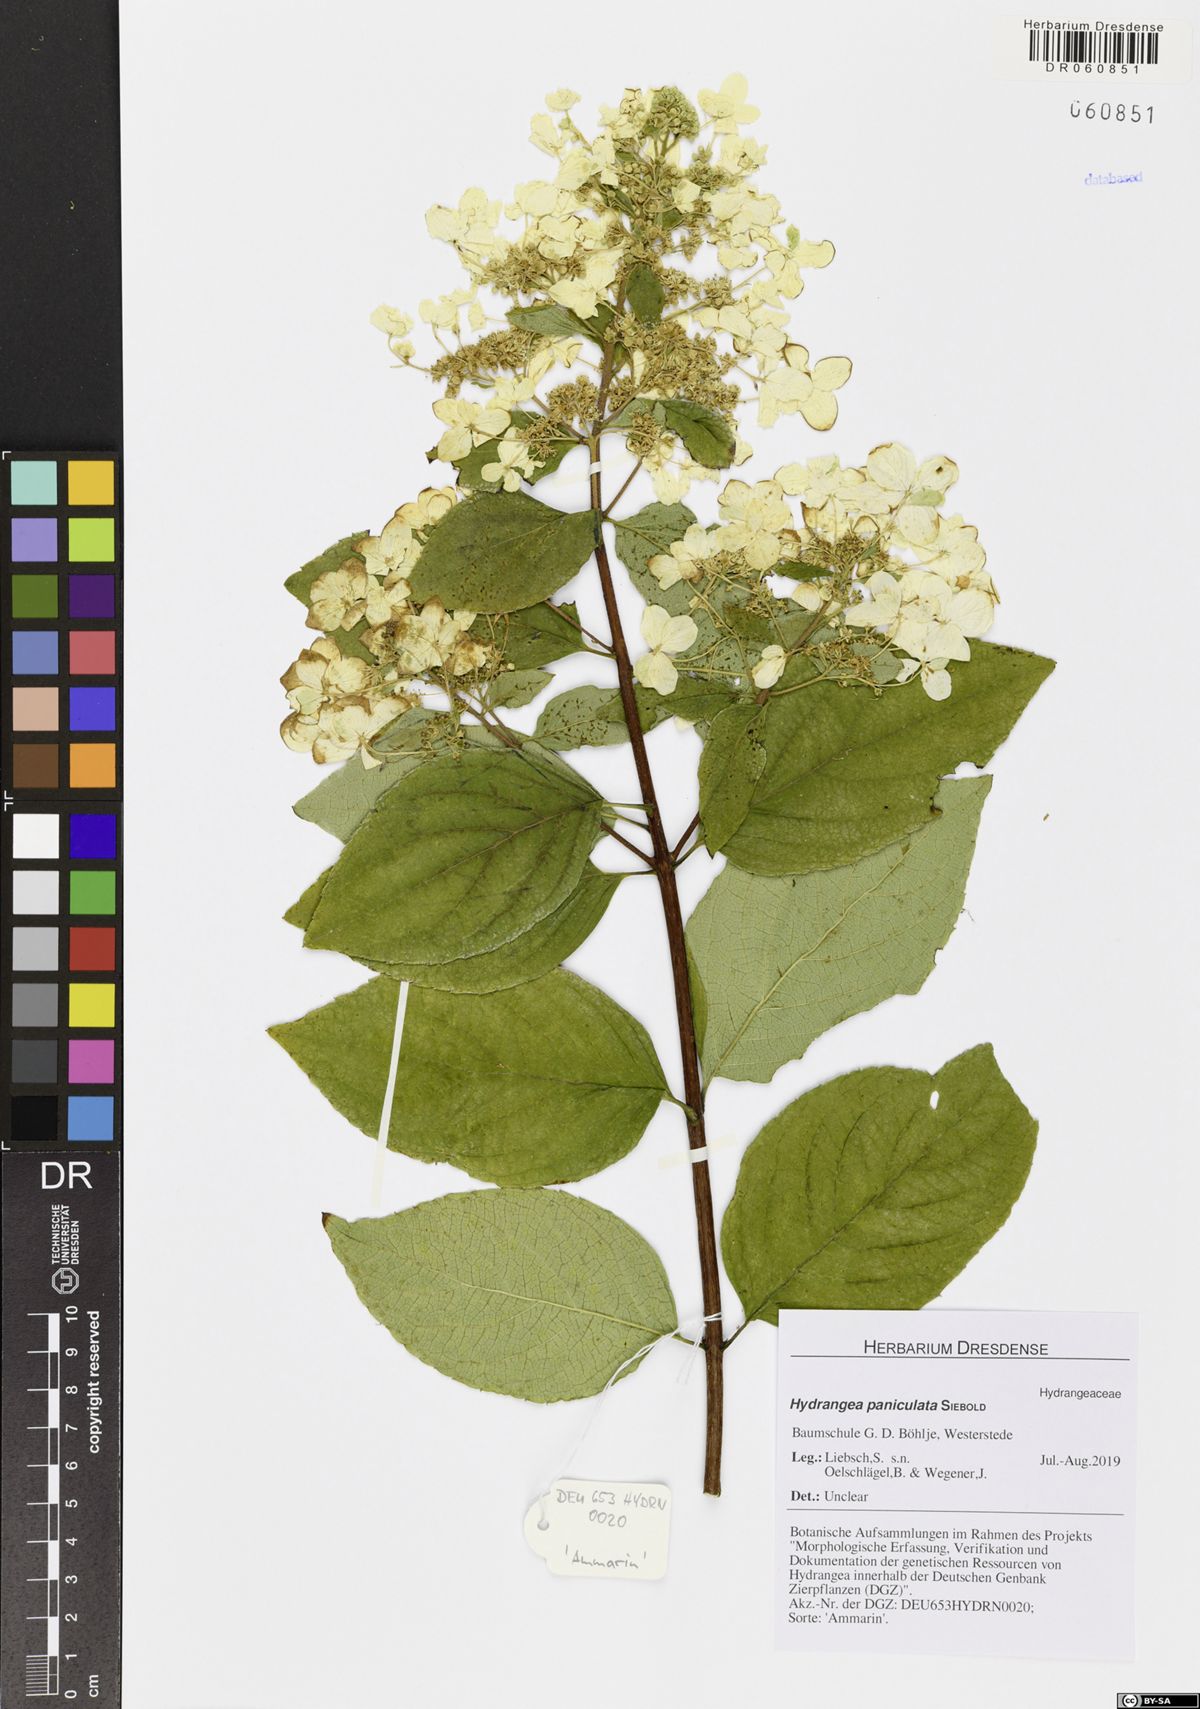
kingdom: Plantae
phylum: Tracheophyta
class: Magnoliopsida
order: Cornales
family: Hydrangeaceae
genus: Hydrangea
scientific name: Hydrangea paniculata
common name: Panicled hydrangea
